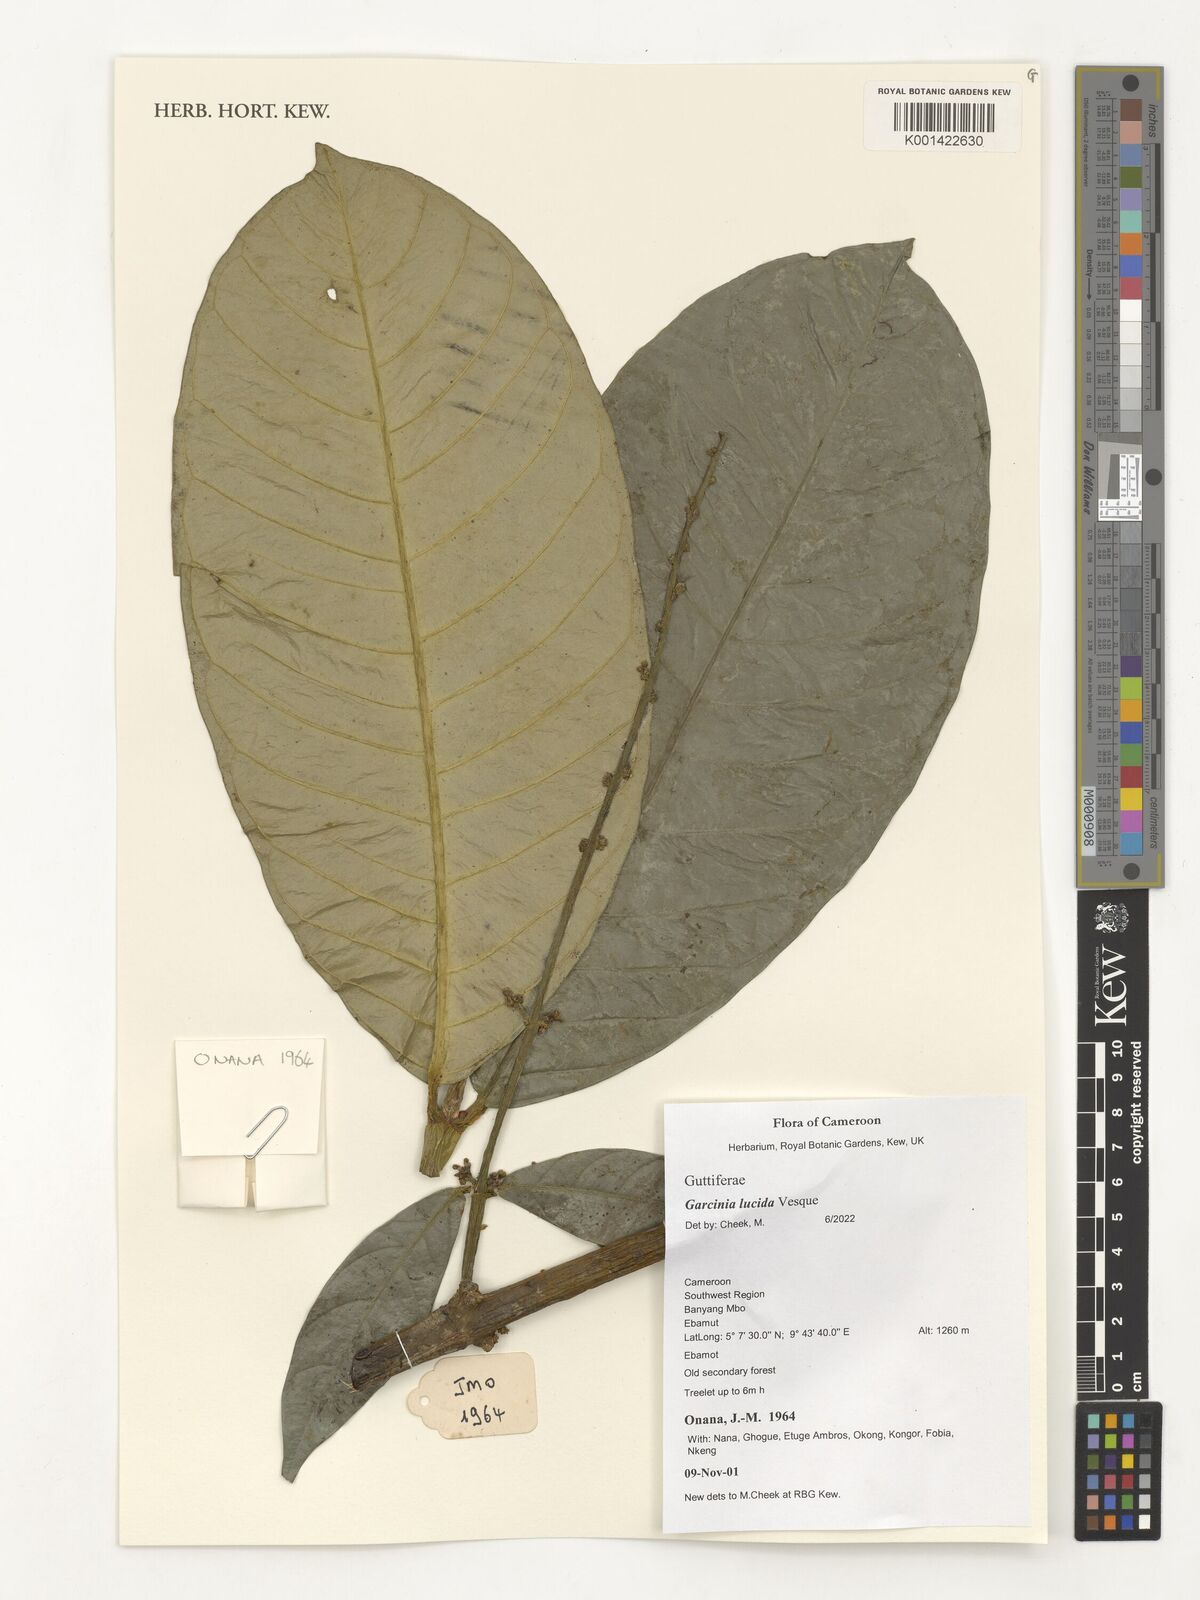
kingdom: Plantae
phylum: Tracheophyta
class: Magnoliopsida
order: Malpighiales
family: Clusiaceae
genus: Garcinia
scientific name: Garcinia lucida
